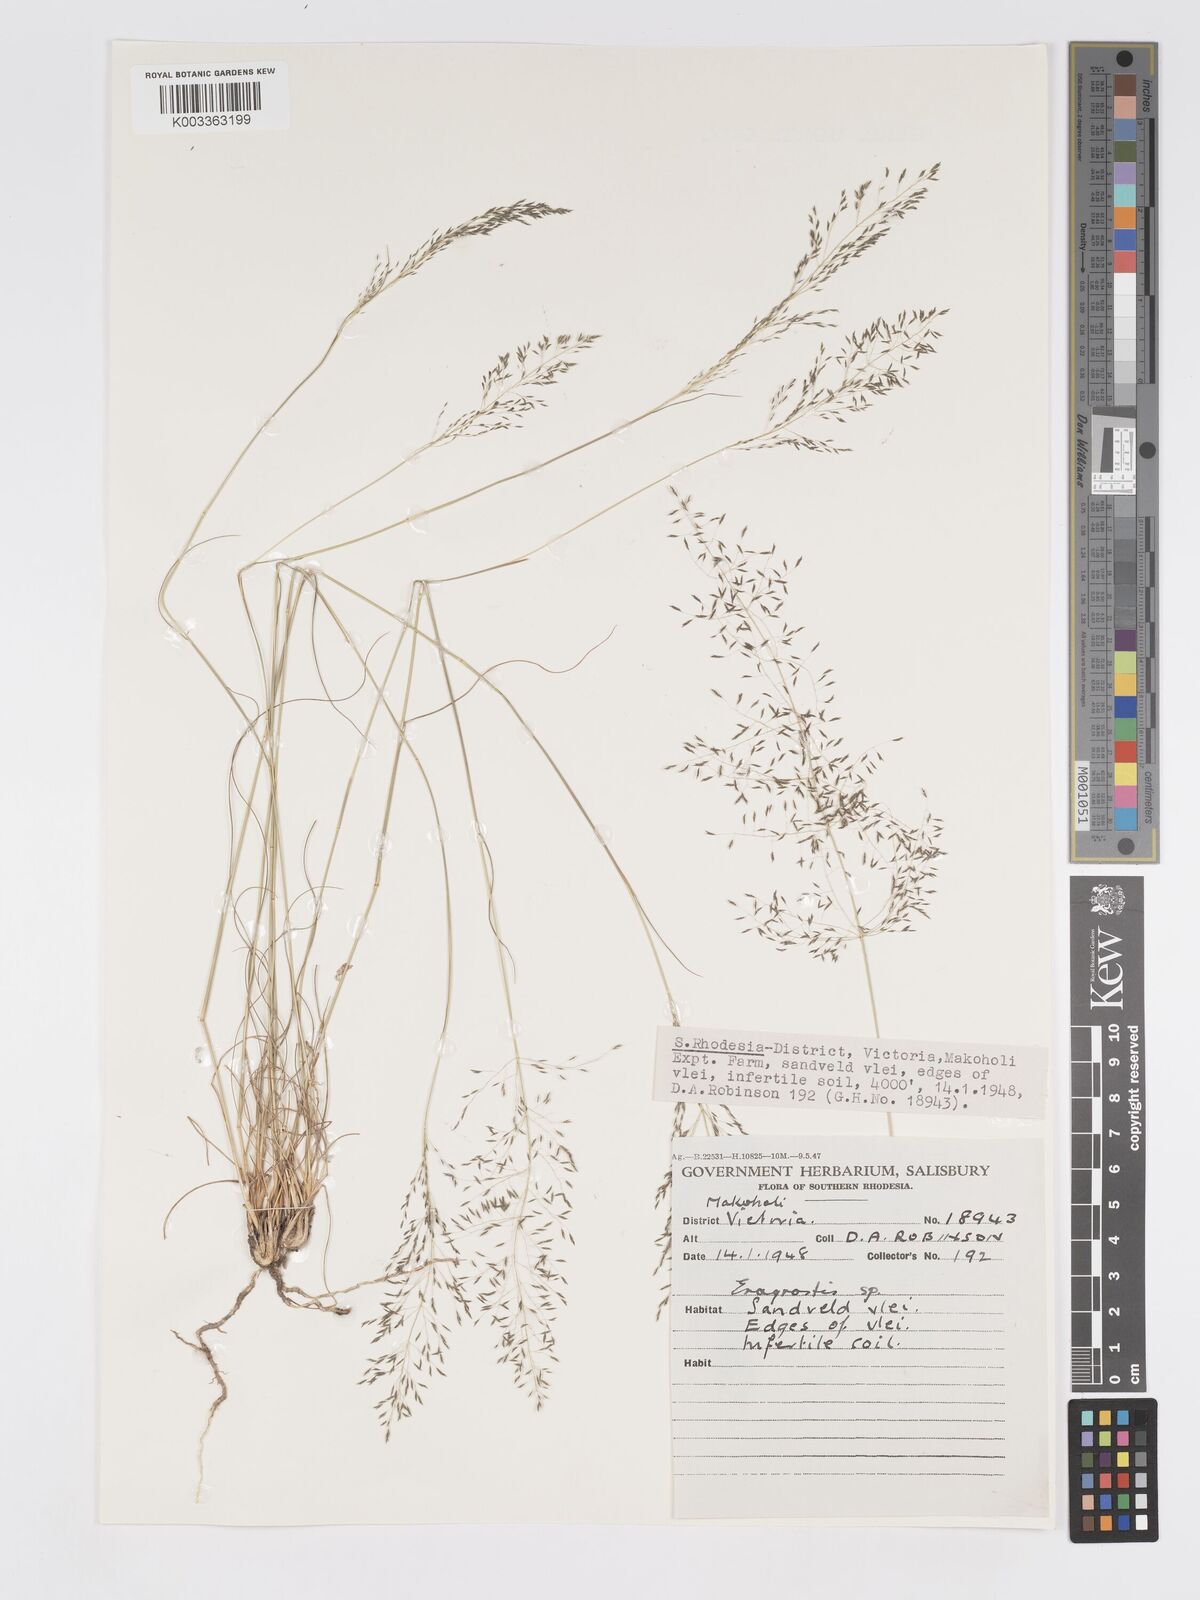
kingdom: Plantae
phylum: Tracheophyta
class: Liliopsida
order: Poales
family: Poaceae
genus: Eragrostis
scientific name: Eragrostis stapfii
